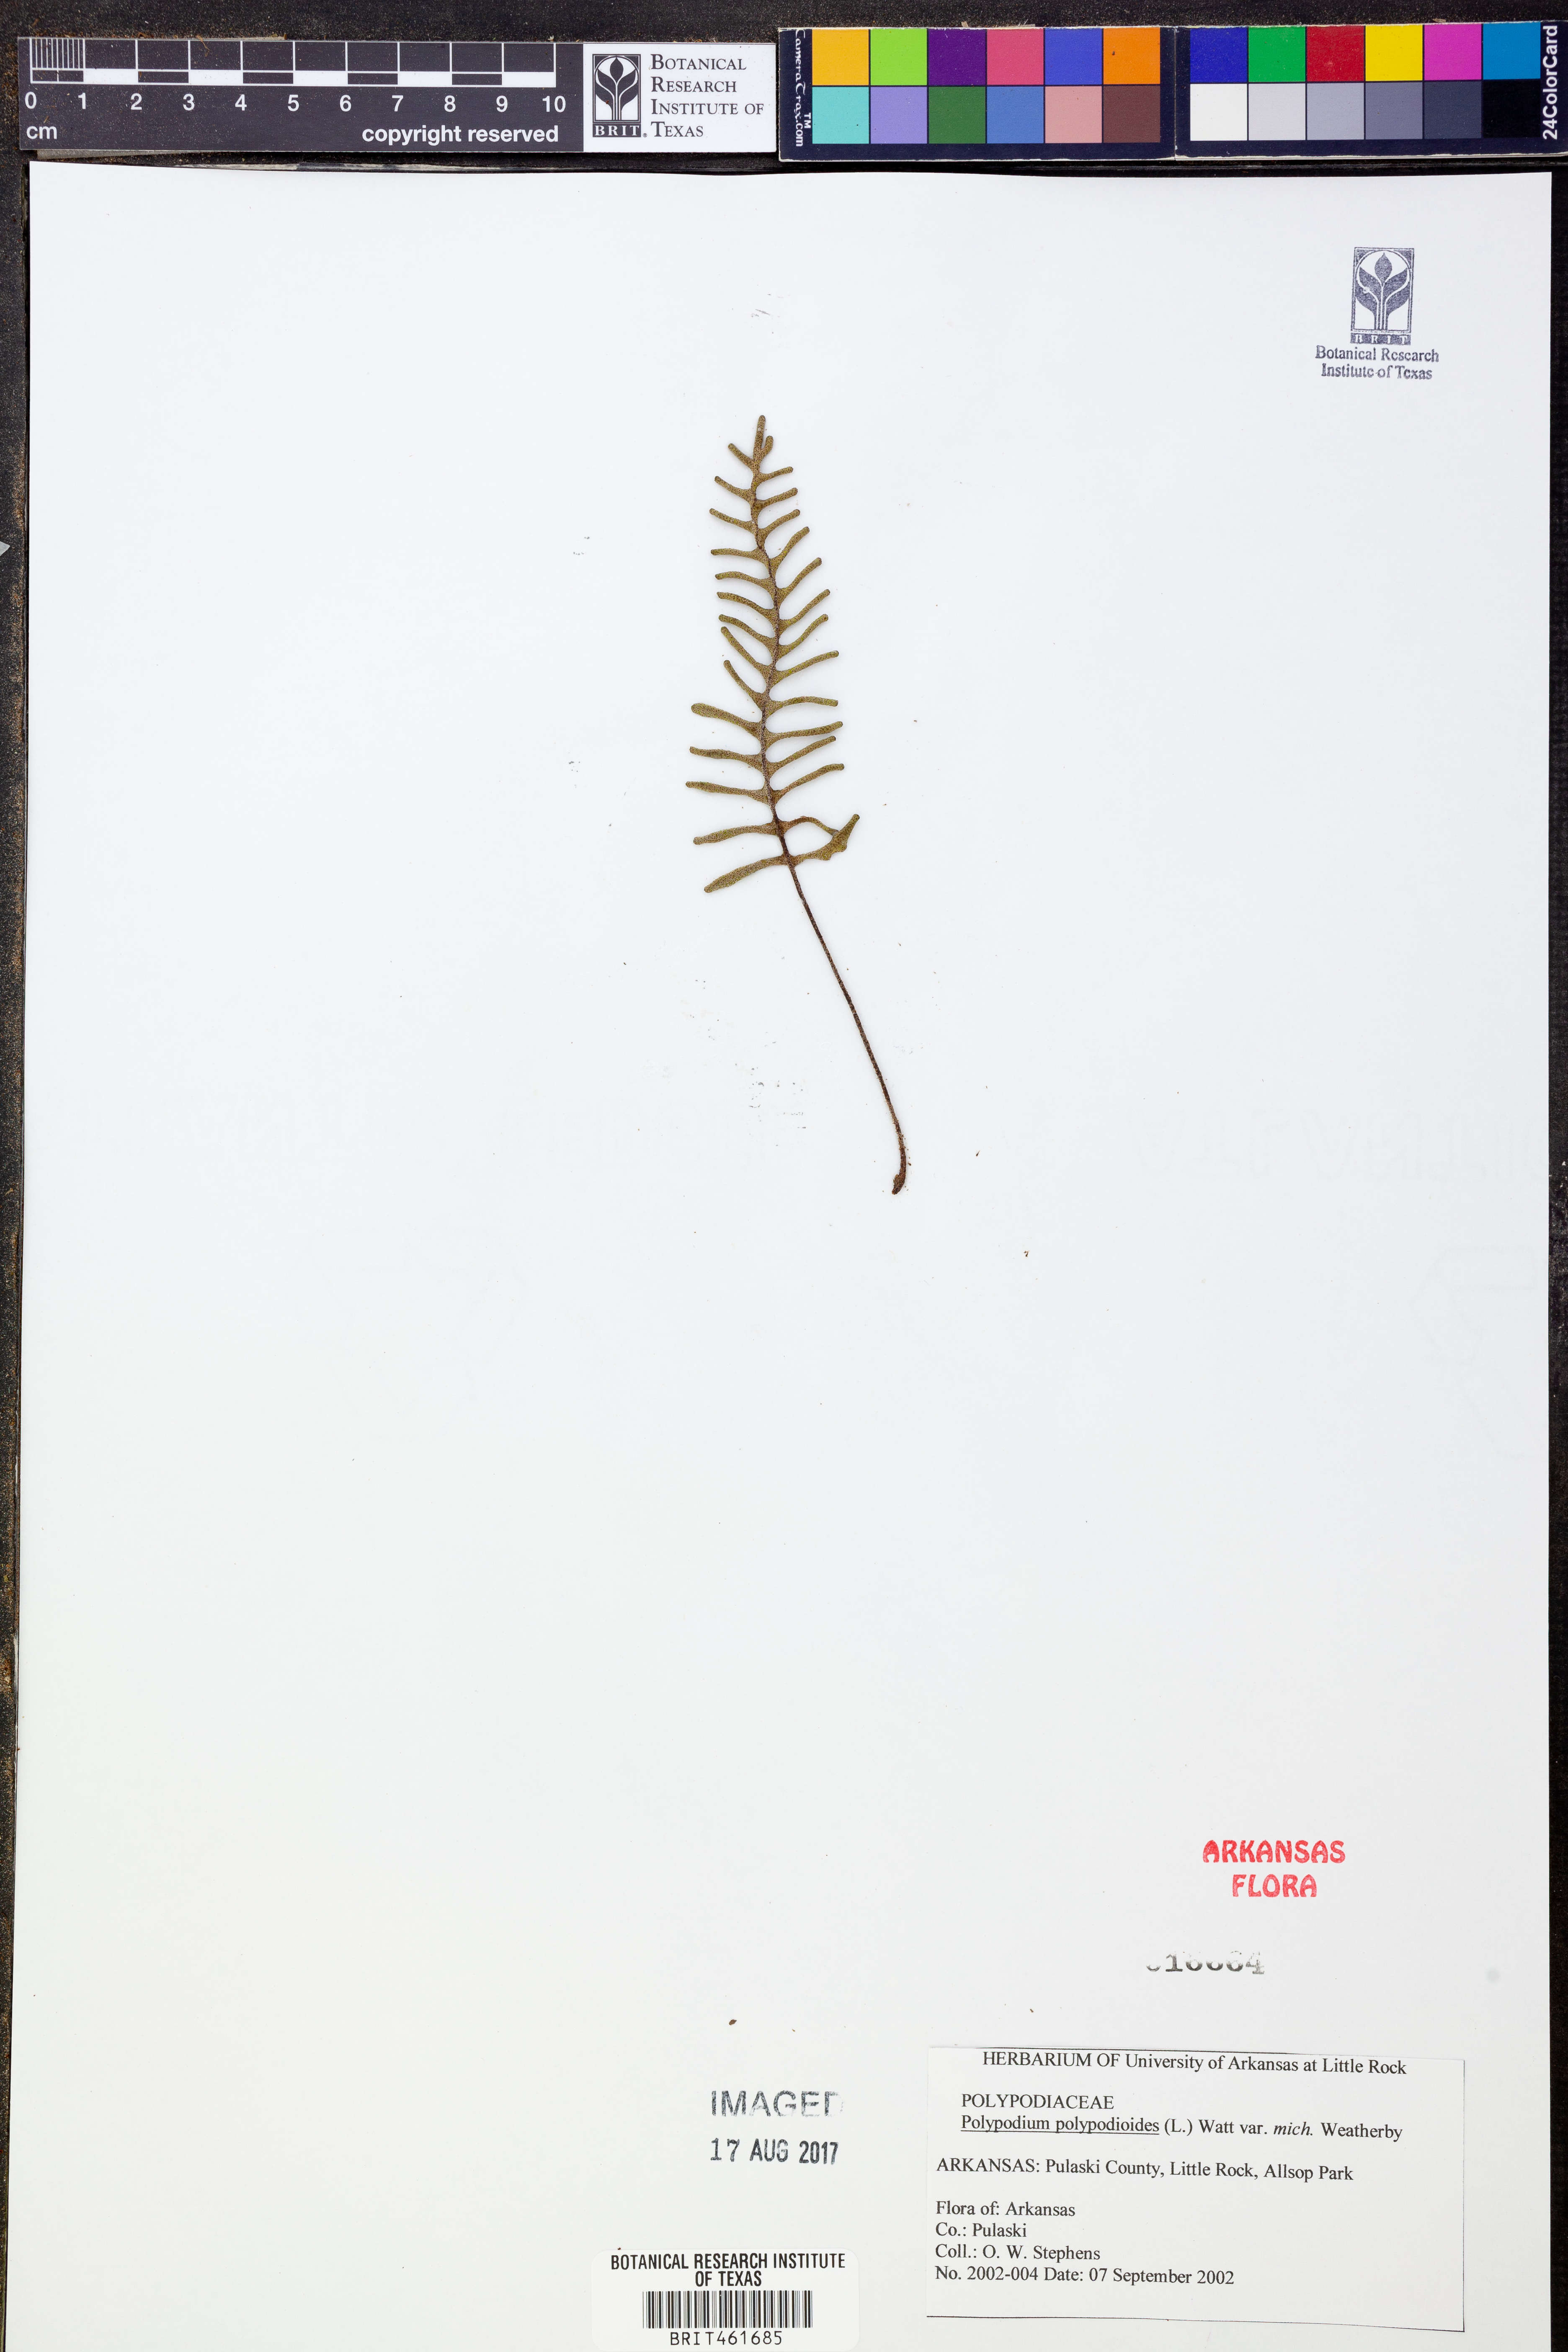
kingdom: Plantae
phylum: Tracheophyta
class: Polypodiopsida
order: Polypodiales
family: Polypodiaceae
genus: Pleopeltis
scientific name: Pleopeltis polypodioides
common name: Resurrection fern
